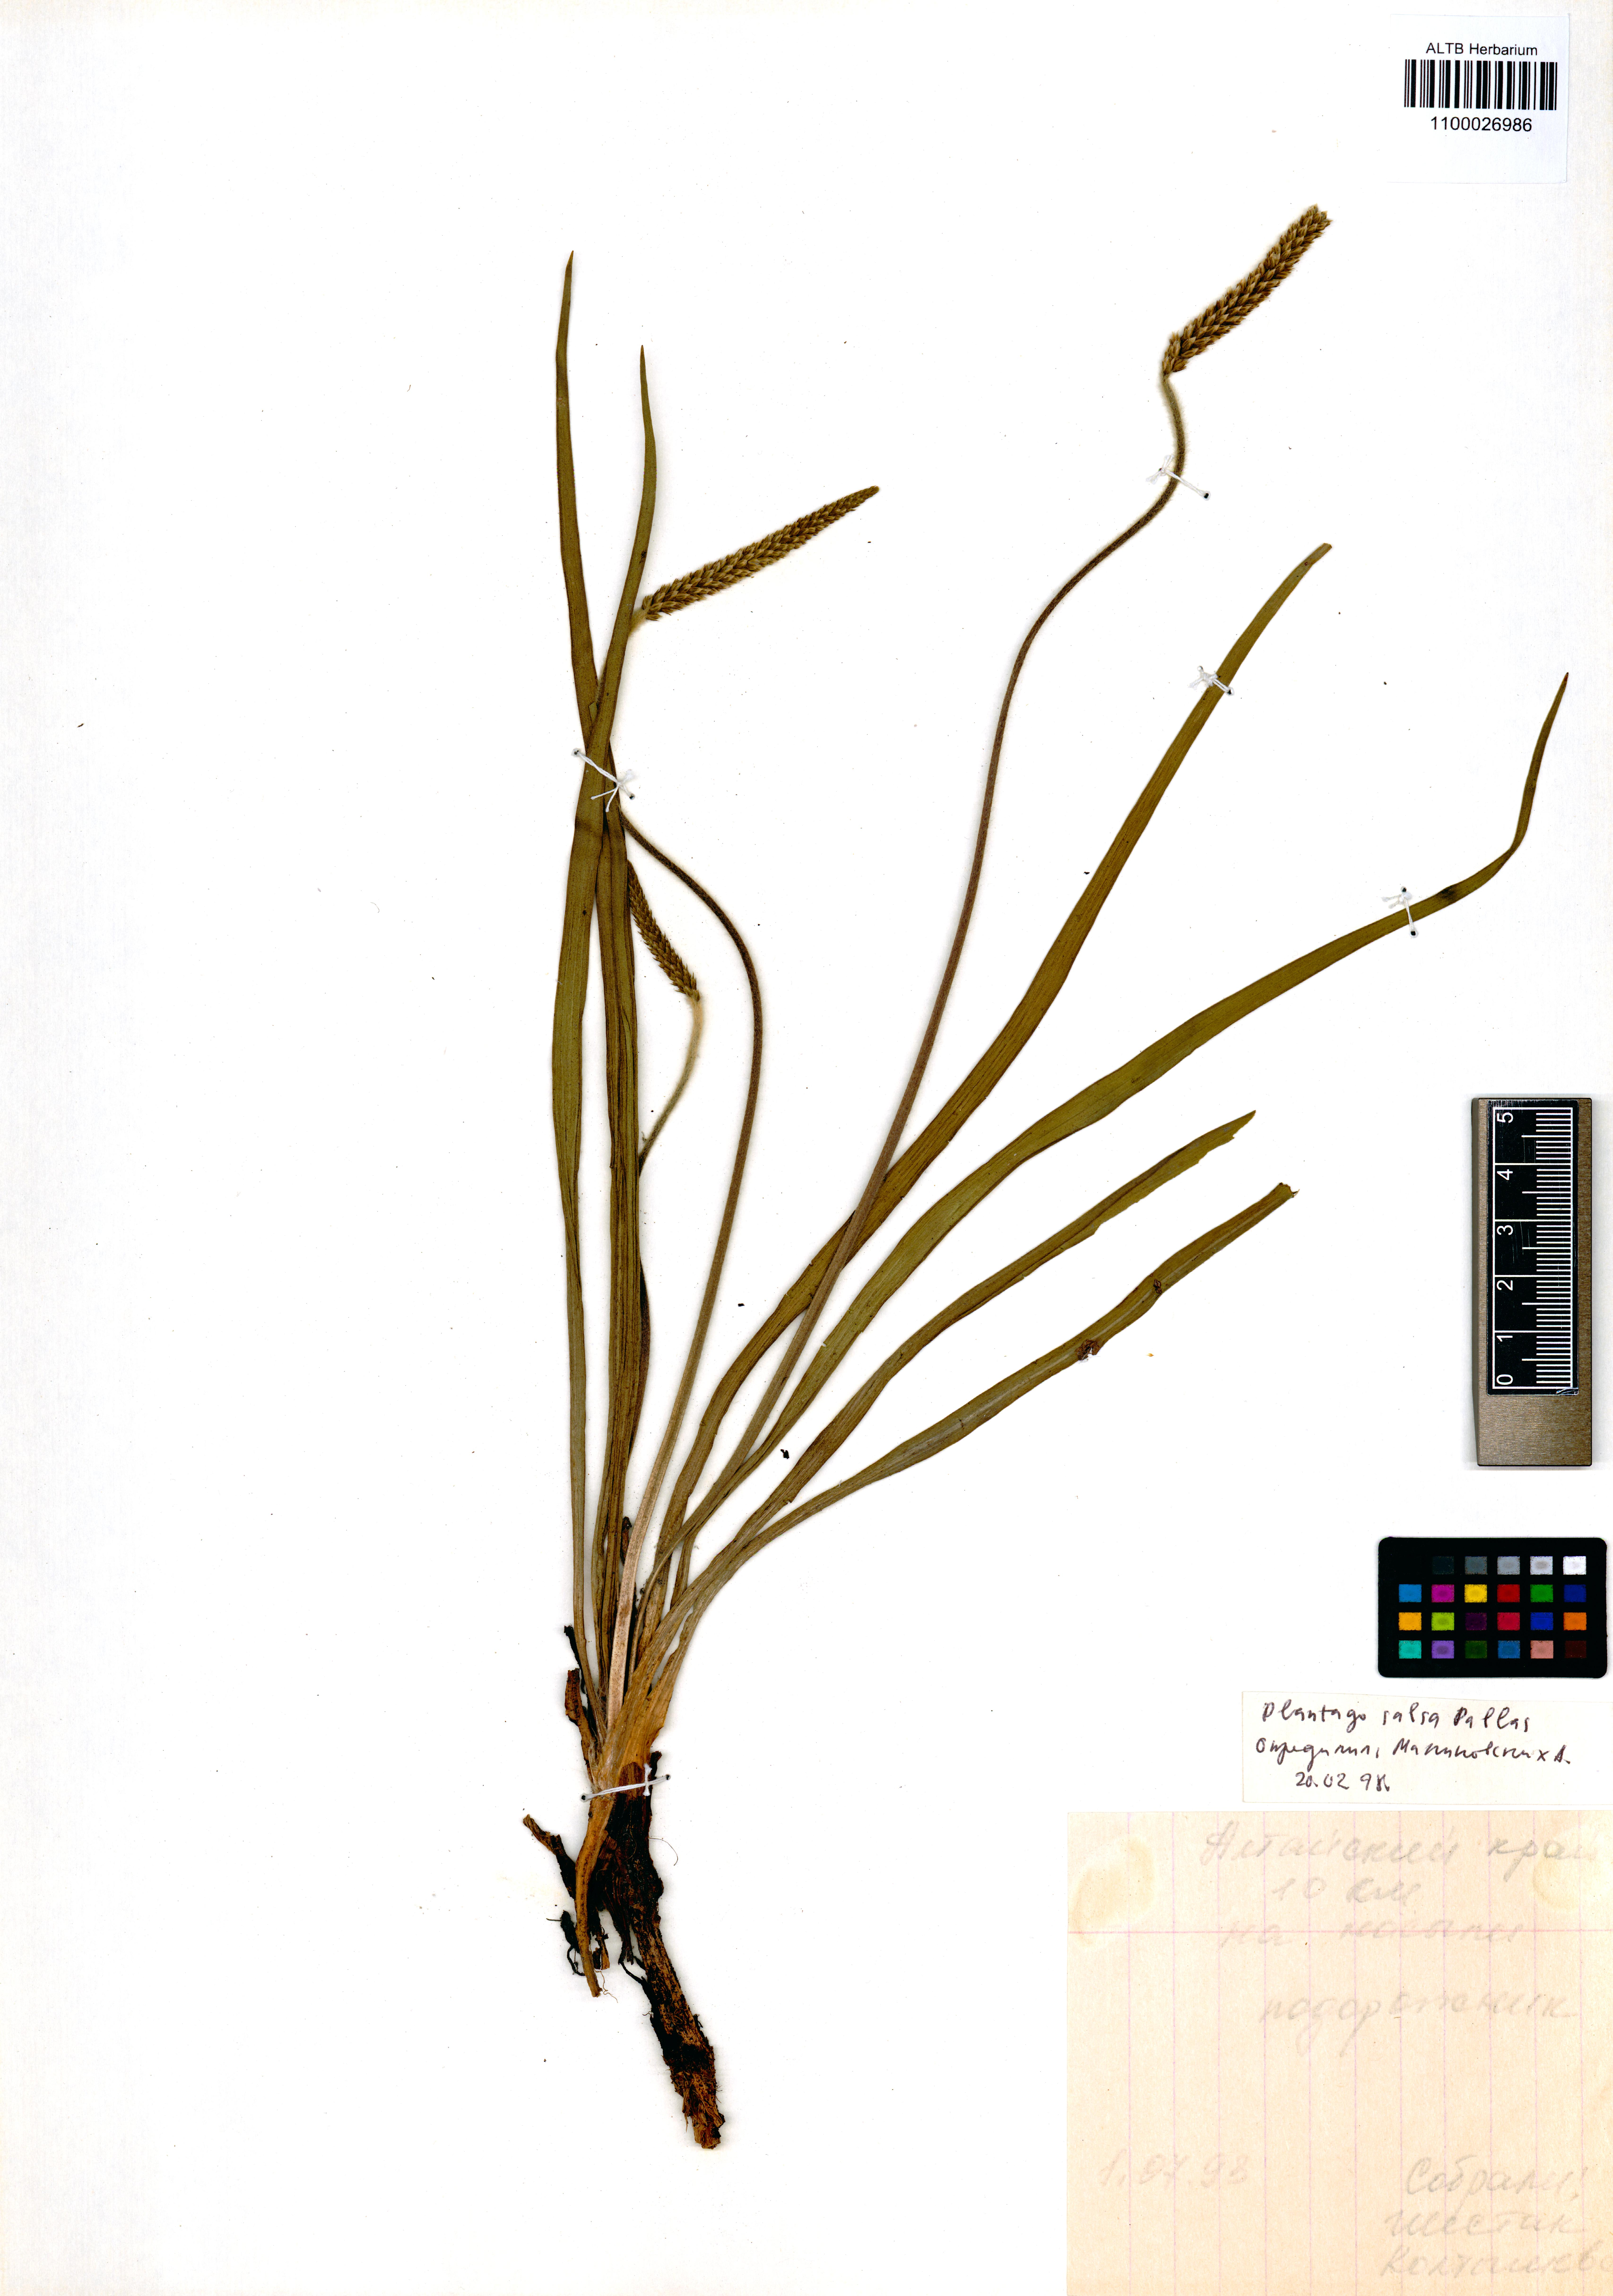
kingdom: Plantae
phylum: Tracheophyta
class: Magnoliopsida
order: Lamiales
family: Plantaginaceae
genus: Plantago
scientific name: Plantago salsa
